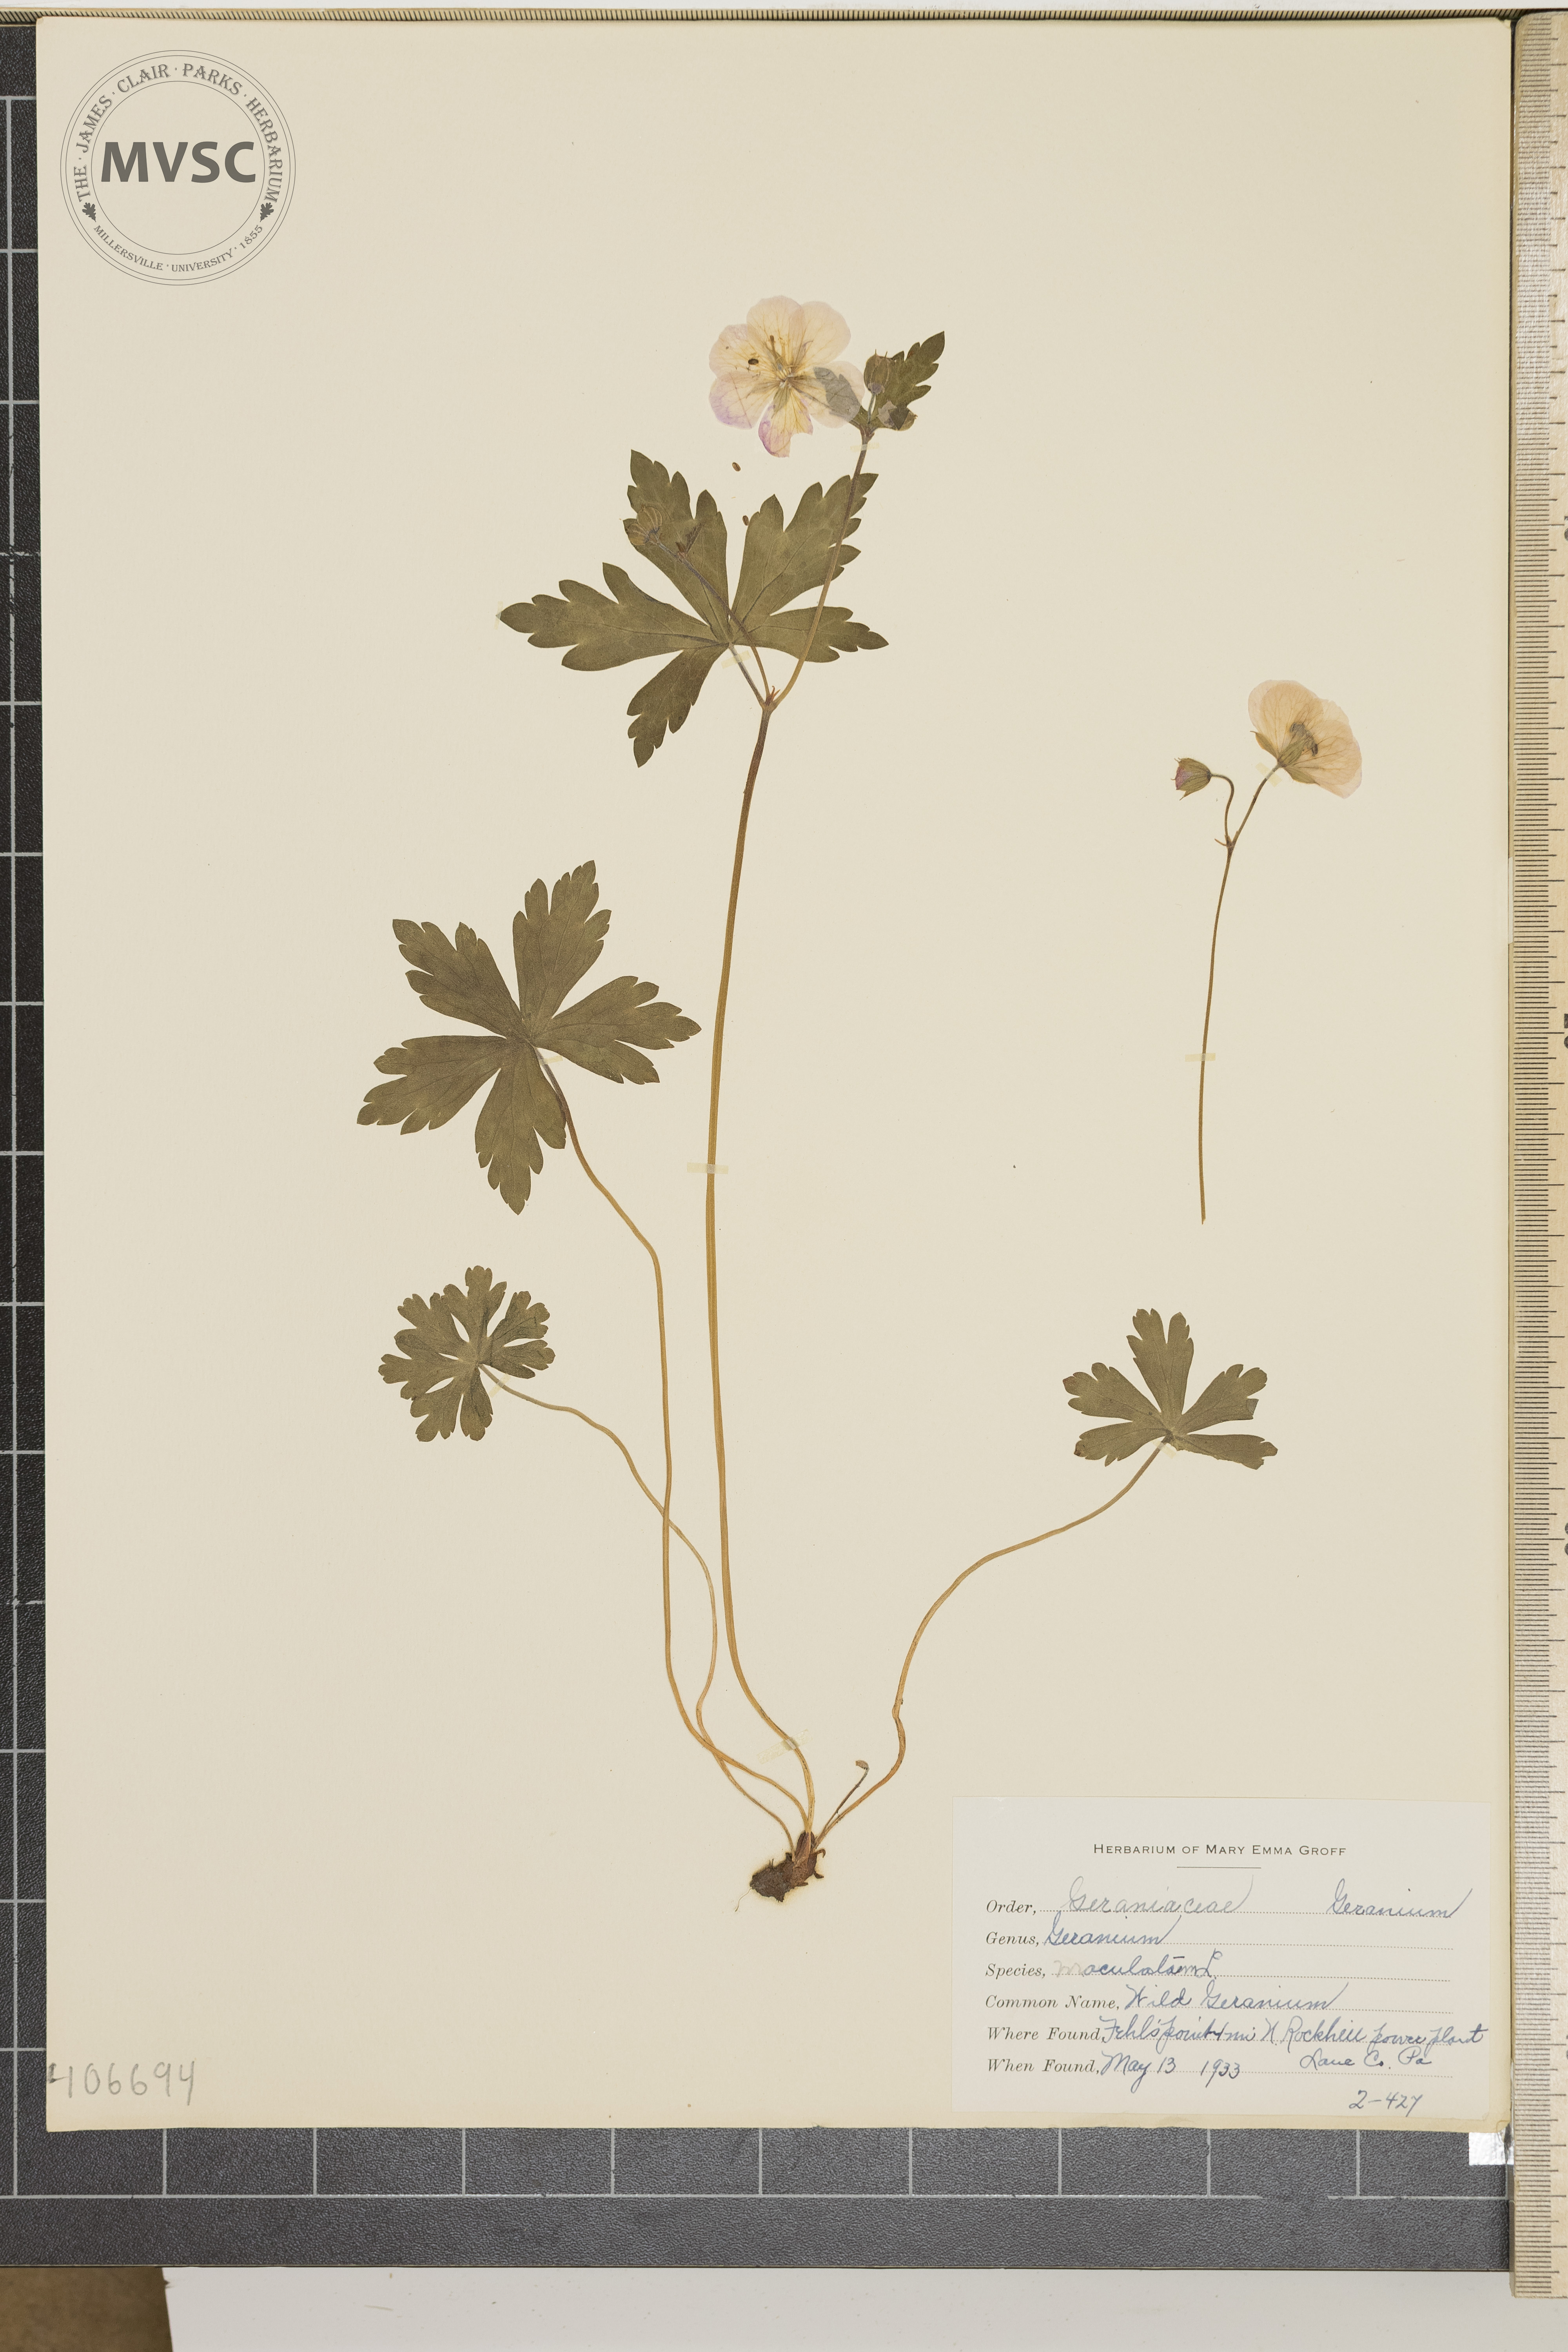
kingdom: Plantae
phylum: Tracheophyta
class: Magnoliopsida
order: Geraniales
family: Geraniaceae
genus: Geranium
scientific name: Geranium maculatum
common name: Spotted geranium
